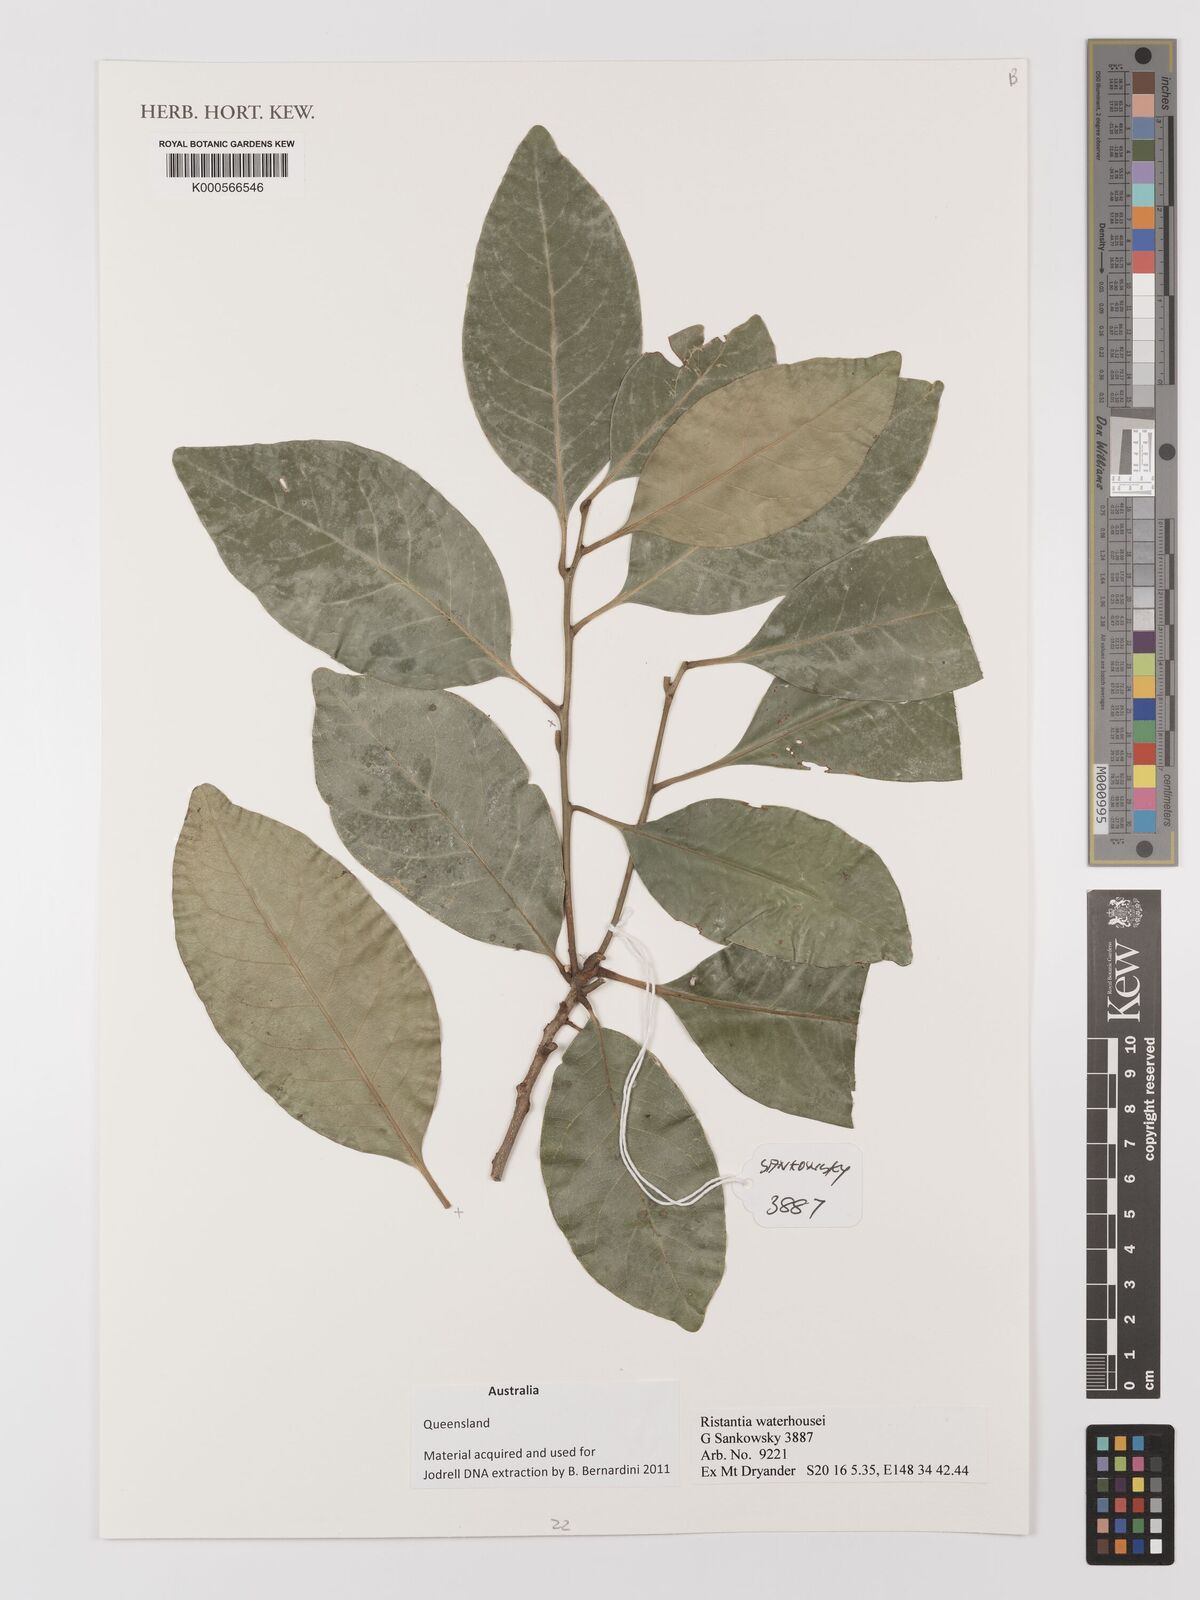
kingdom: Plantae
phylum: Tracheophyta
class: Magnoliopsida
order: Myrtales
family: Myrtaceae
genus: Ristantia
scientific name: Ristantia waterhousei
